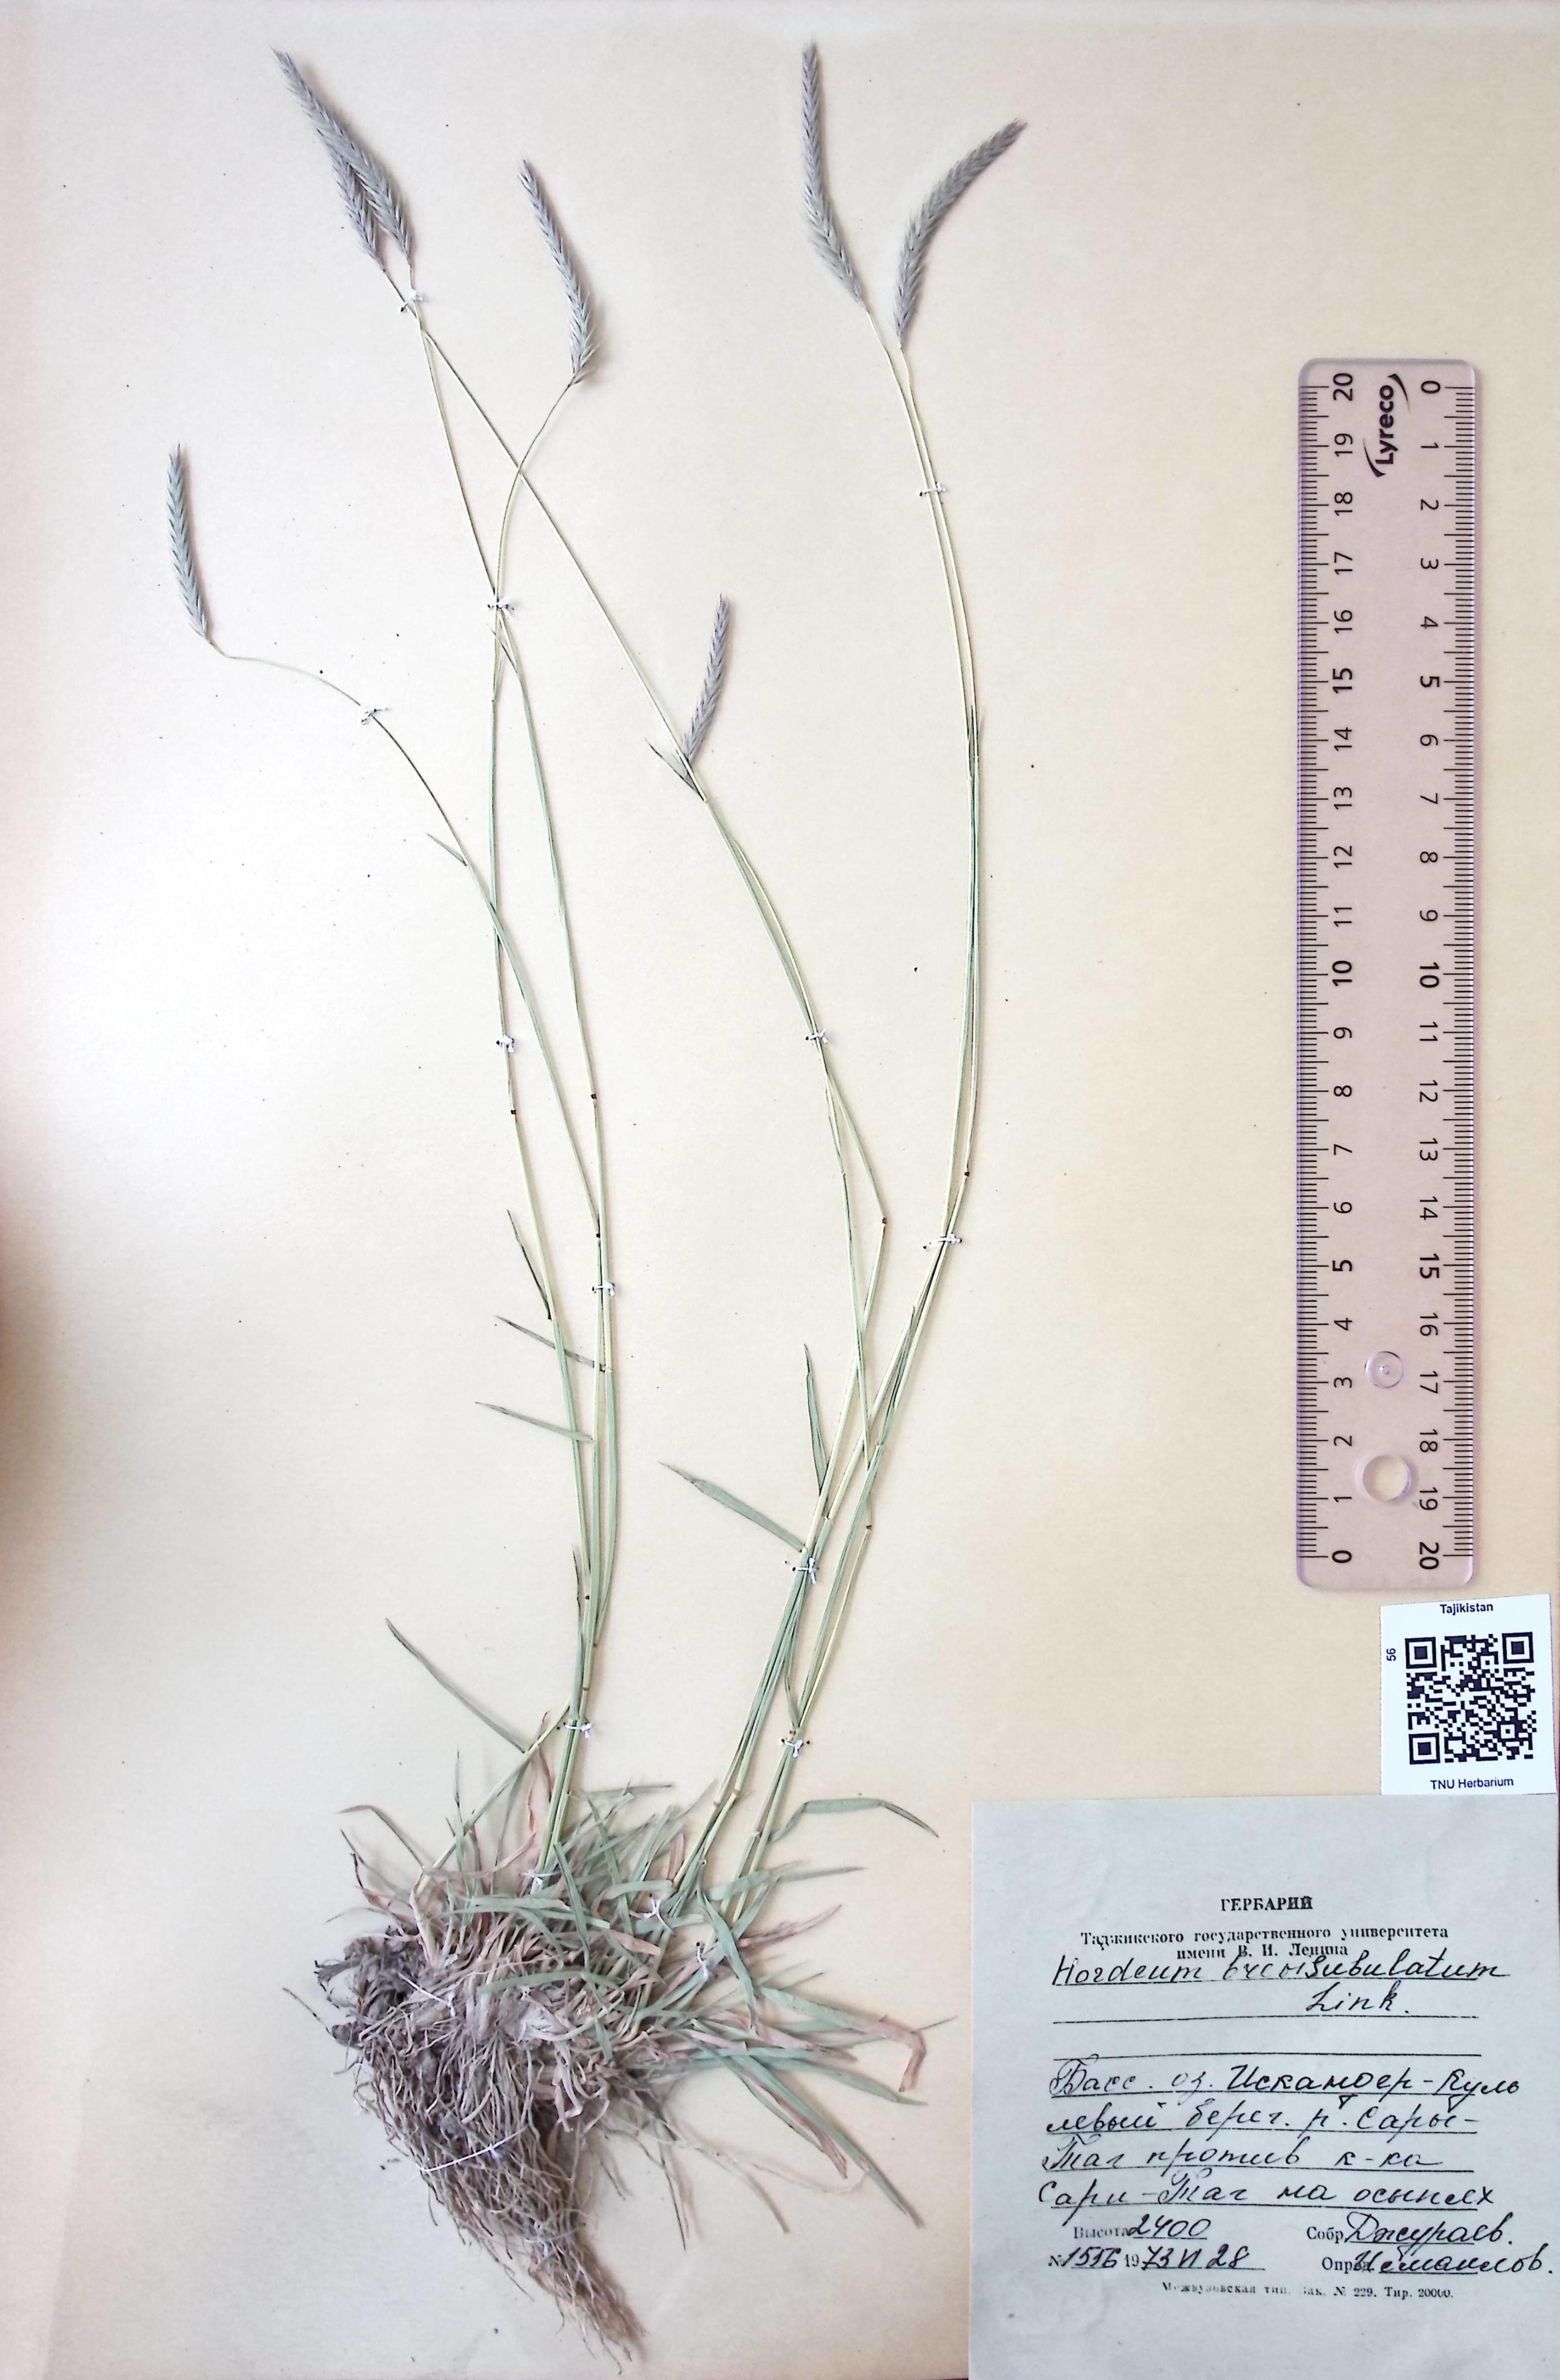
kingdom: Plantae
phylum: Tracheophyta
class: Liliopsida
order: Poales
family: Poaceae
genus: Hordeum
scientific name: Hordeum brevisubulatum
